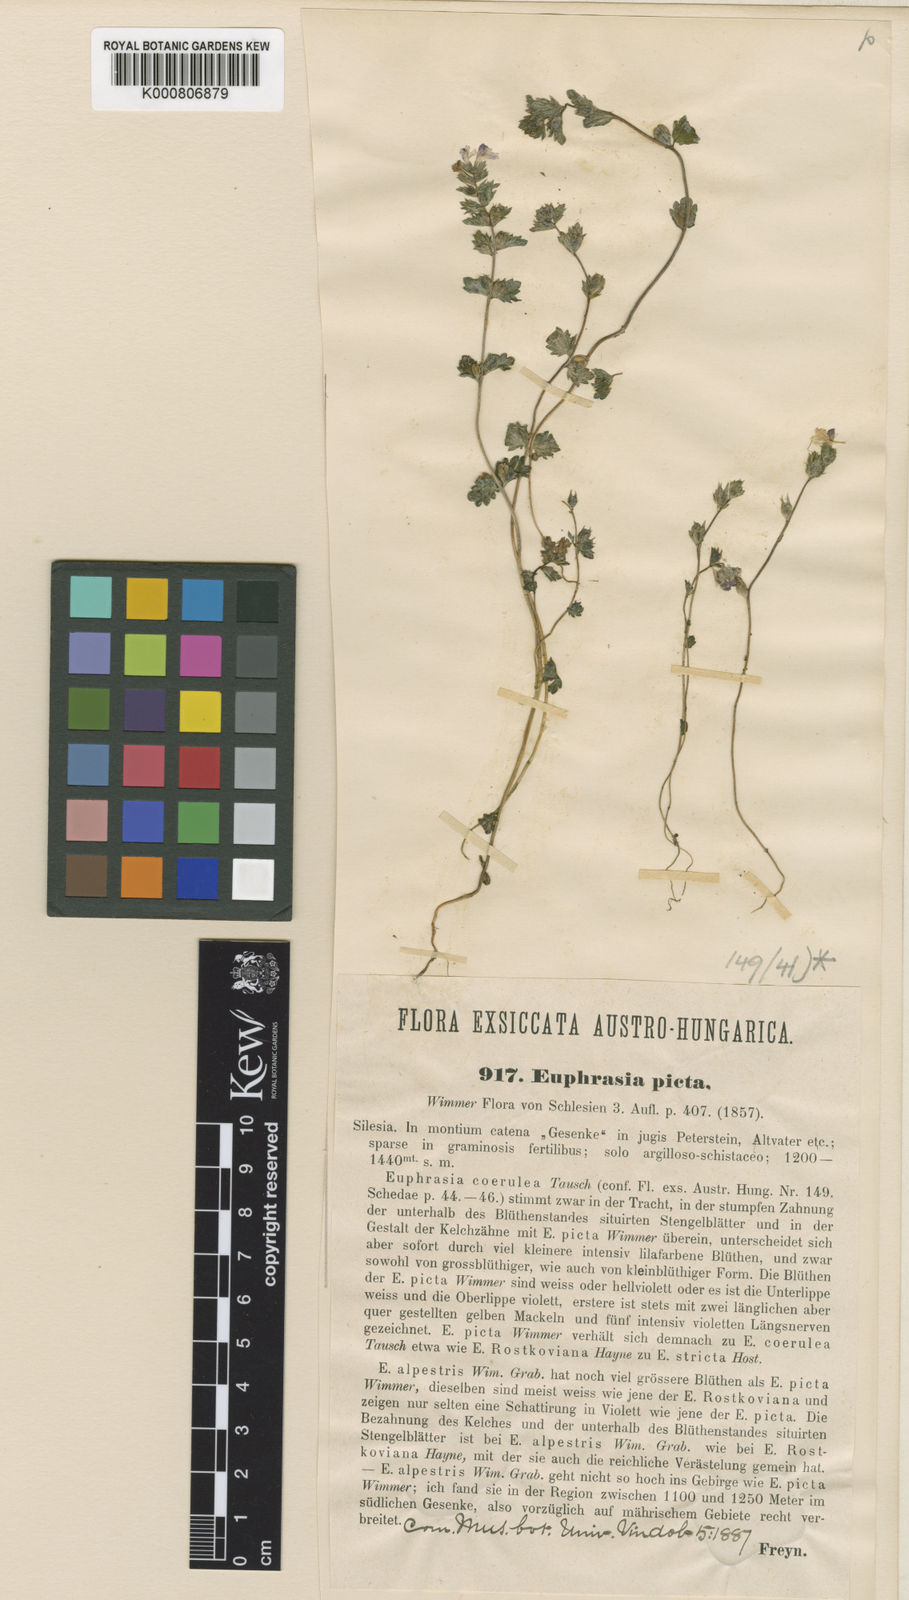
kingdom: Plantae
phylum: Tracheophyta
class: Magnoliopsida
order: Lamiales
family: Orobanchaceae
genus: Euphrasia
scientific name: Euphrasia picta
